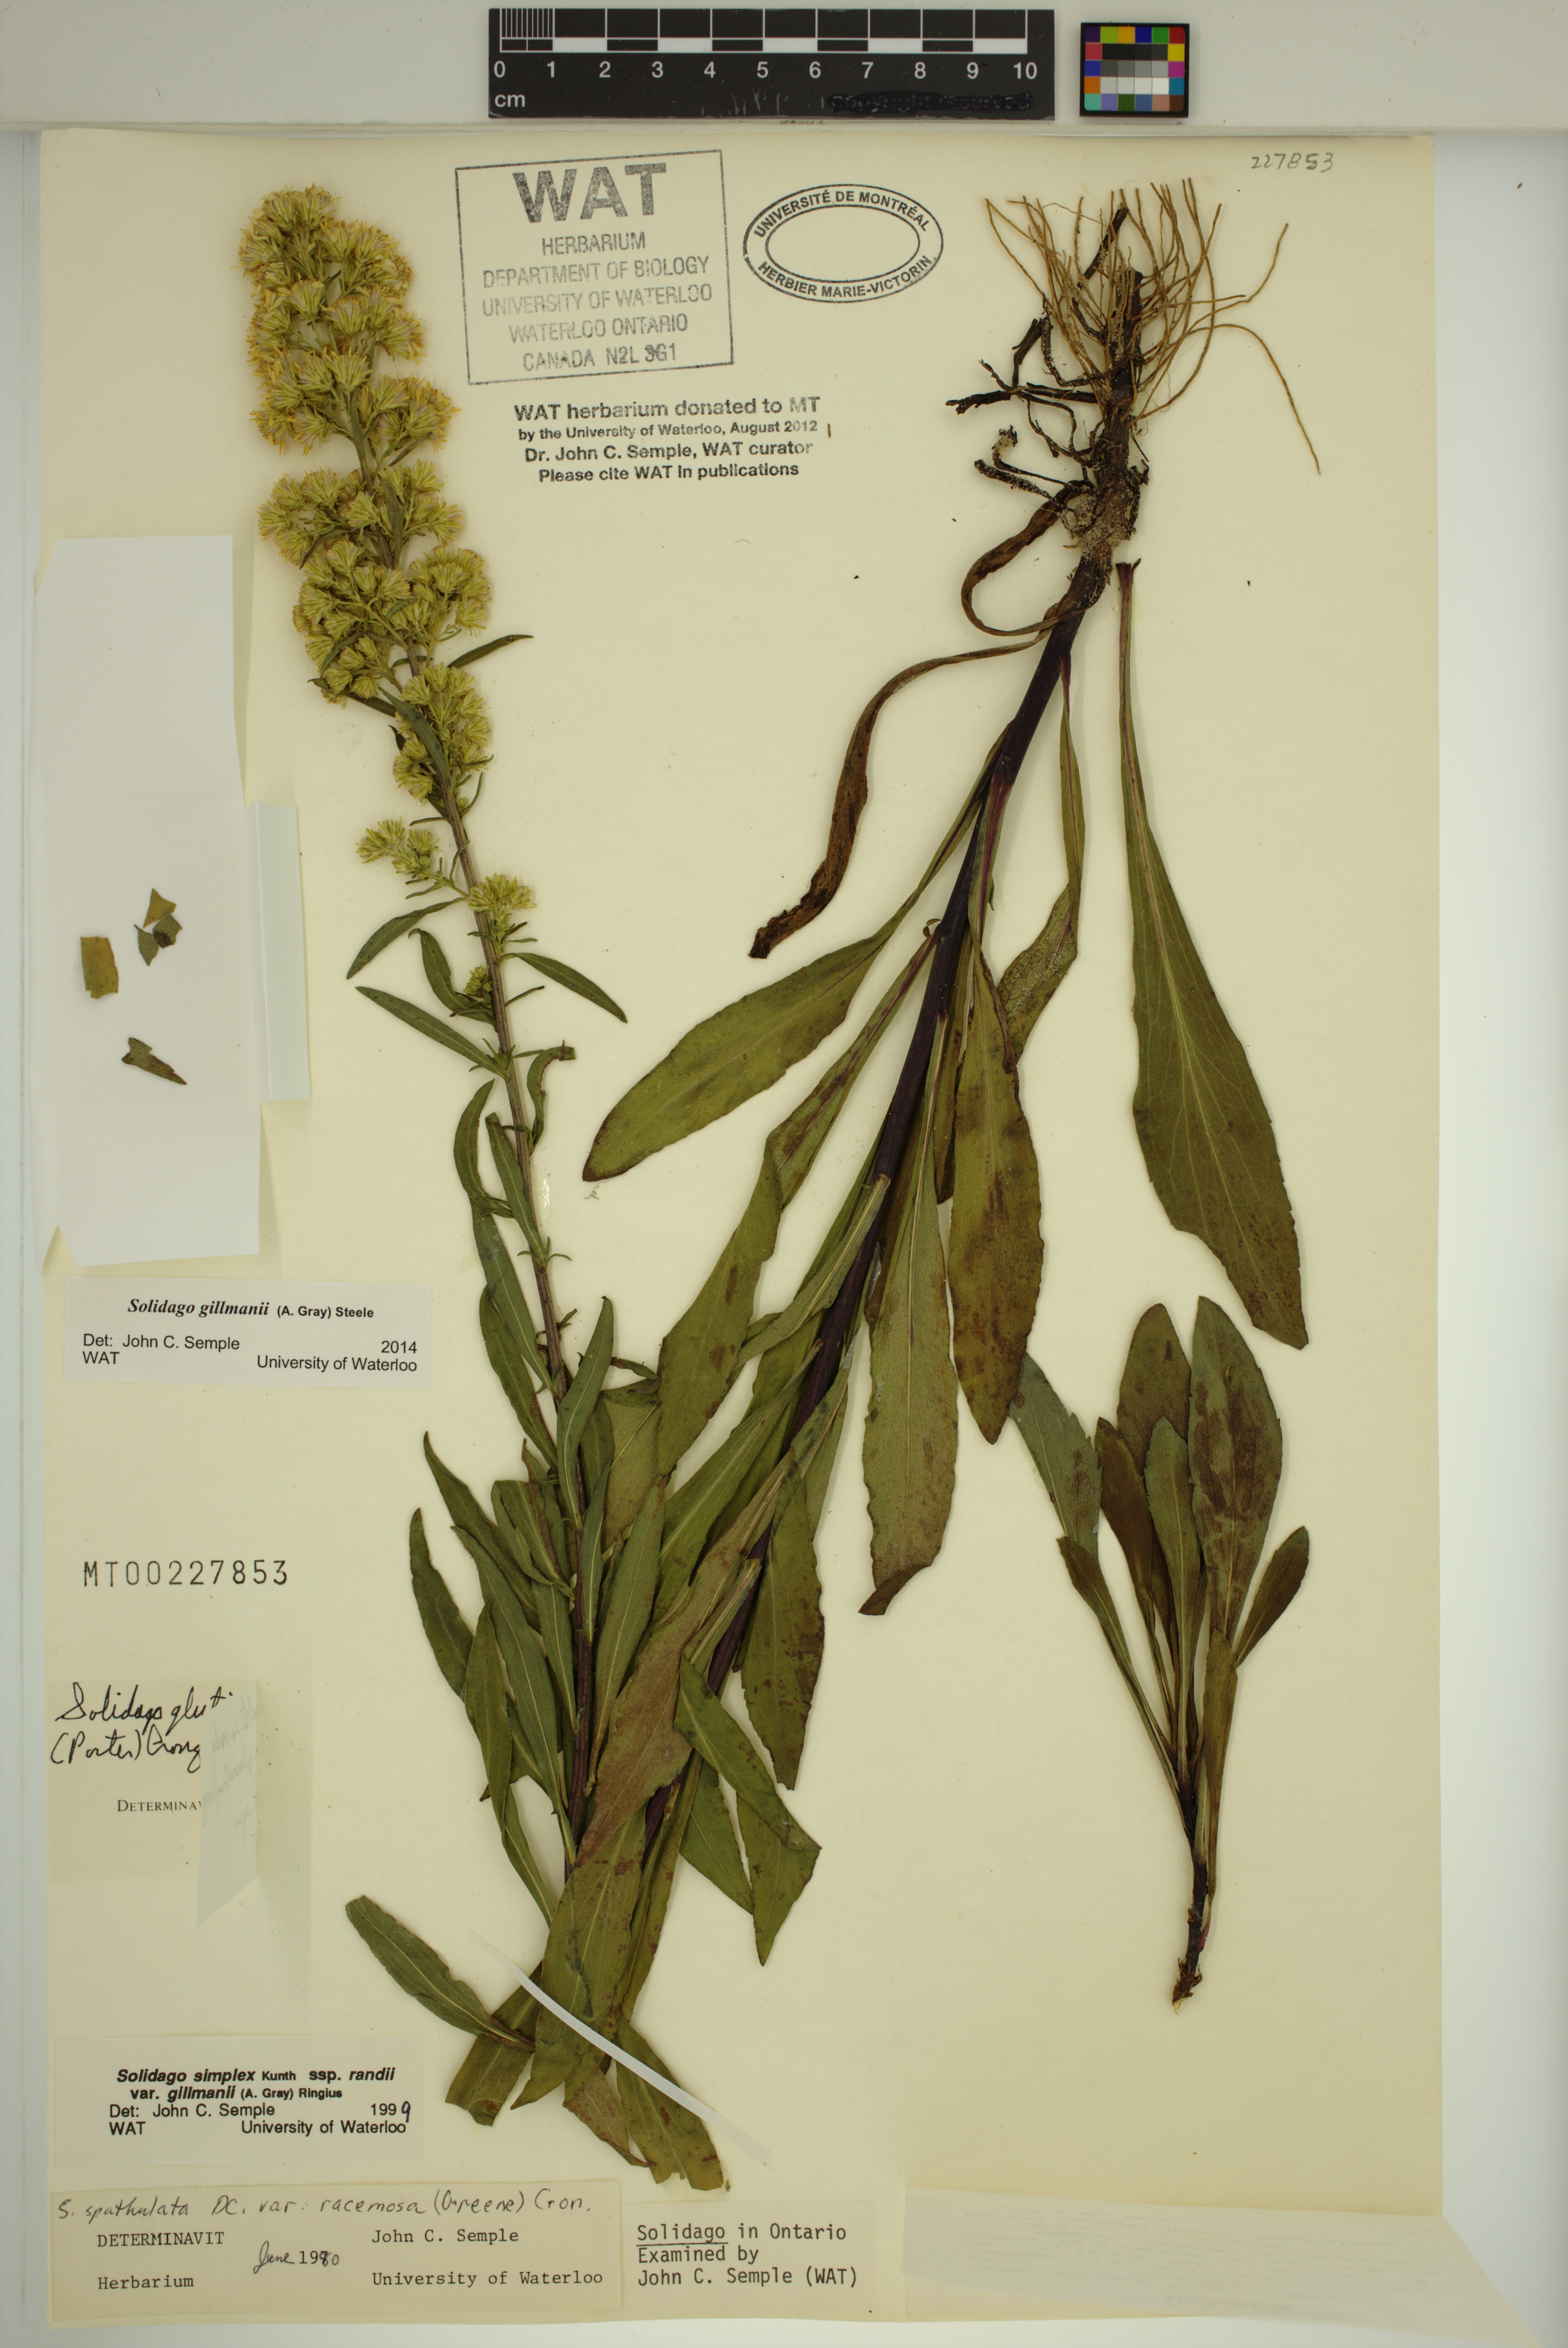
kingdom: Plantae
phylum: Tracheophyta
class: Magnoliopsida
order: Asterales
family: Asteraceae
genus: Solidago
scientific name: Solidago gillmanii
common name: Gillman's goldenrod
